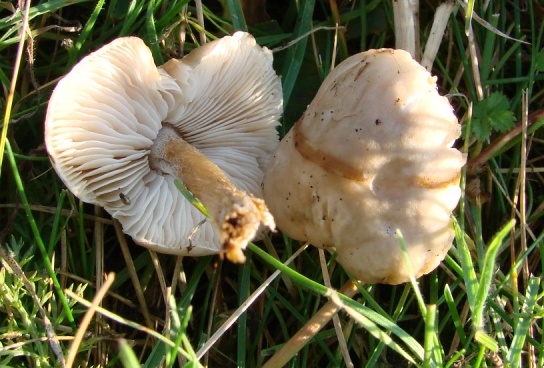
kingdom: Fungi
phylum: Basidiomycota
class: Agaricomycetes
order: Agaricales
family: Tricholomataceae
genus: Melanoleuca
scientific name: Melanoleuca polioleuca
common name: hvidbladet munkehat
